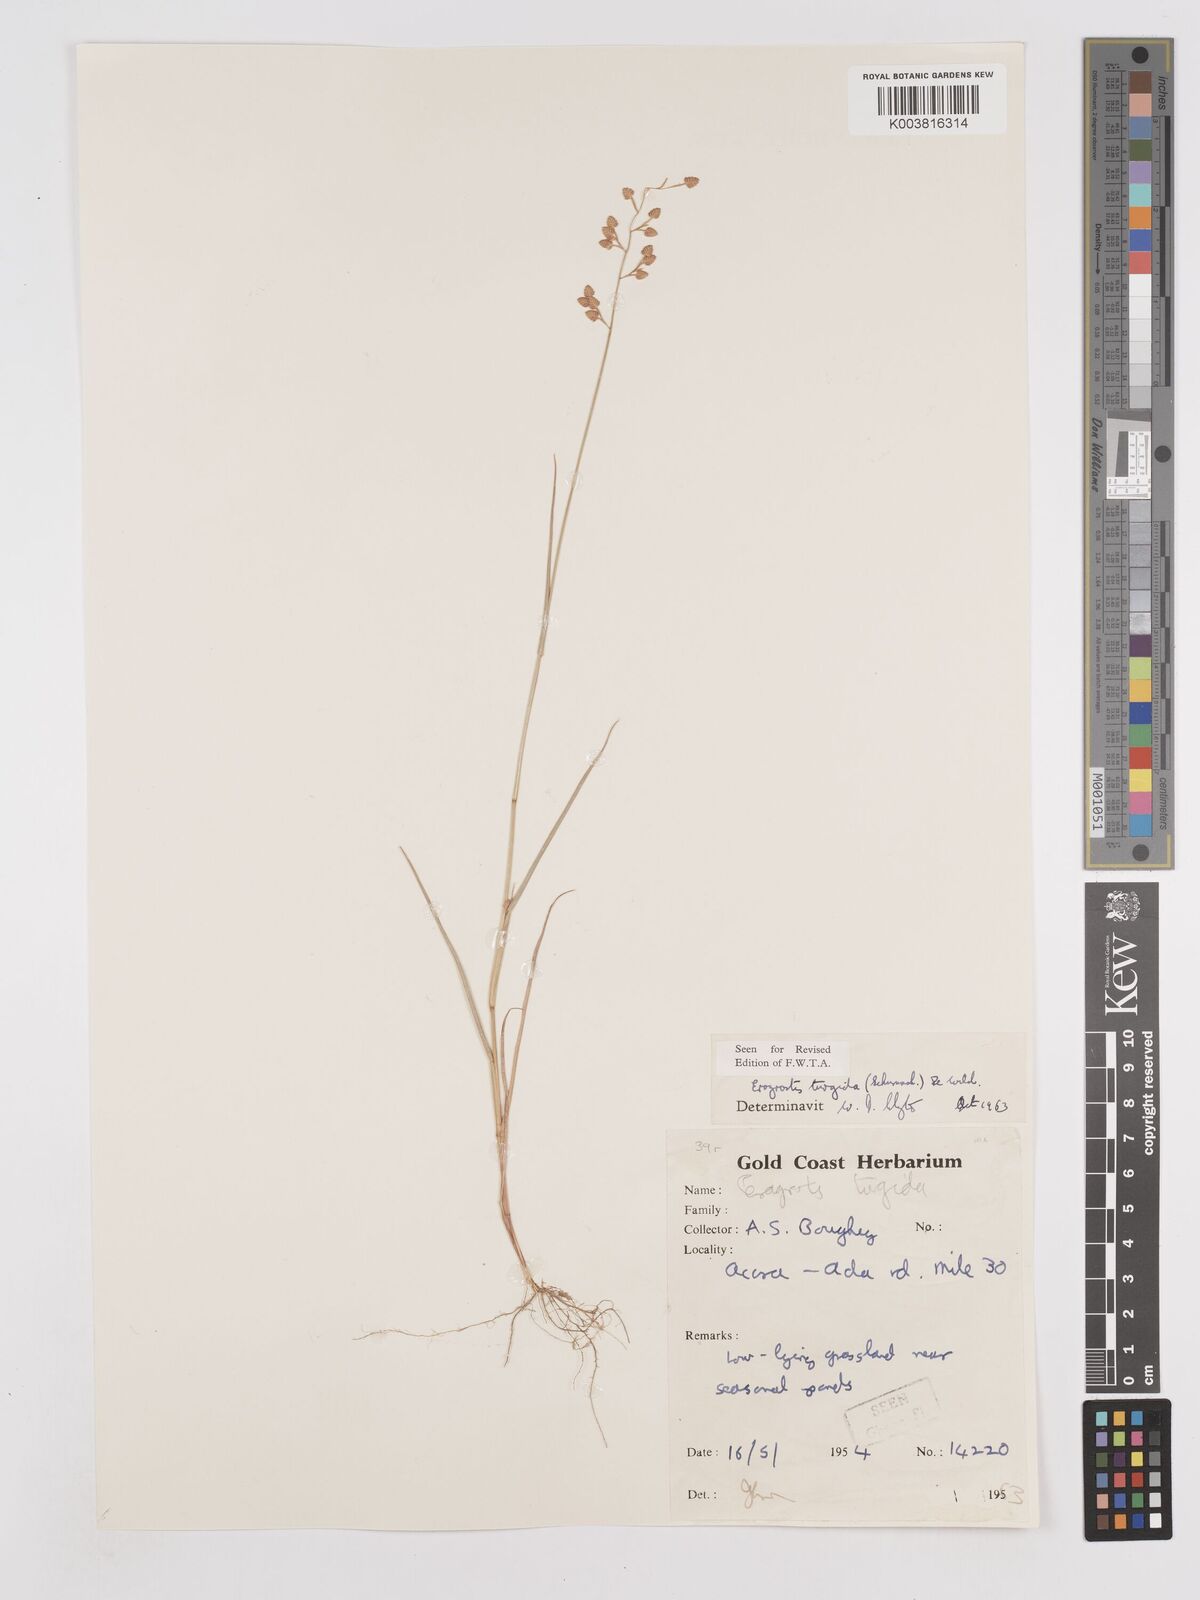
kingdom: Plantae
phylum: Tracheophyta
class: Liliopsida
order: Poales
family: Poaceae
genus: Eragrostis
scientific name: Eragrostis turgida
